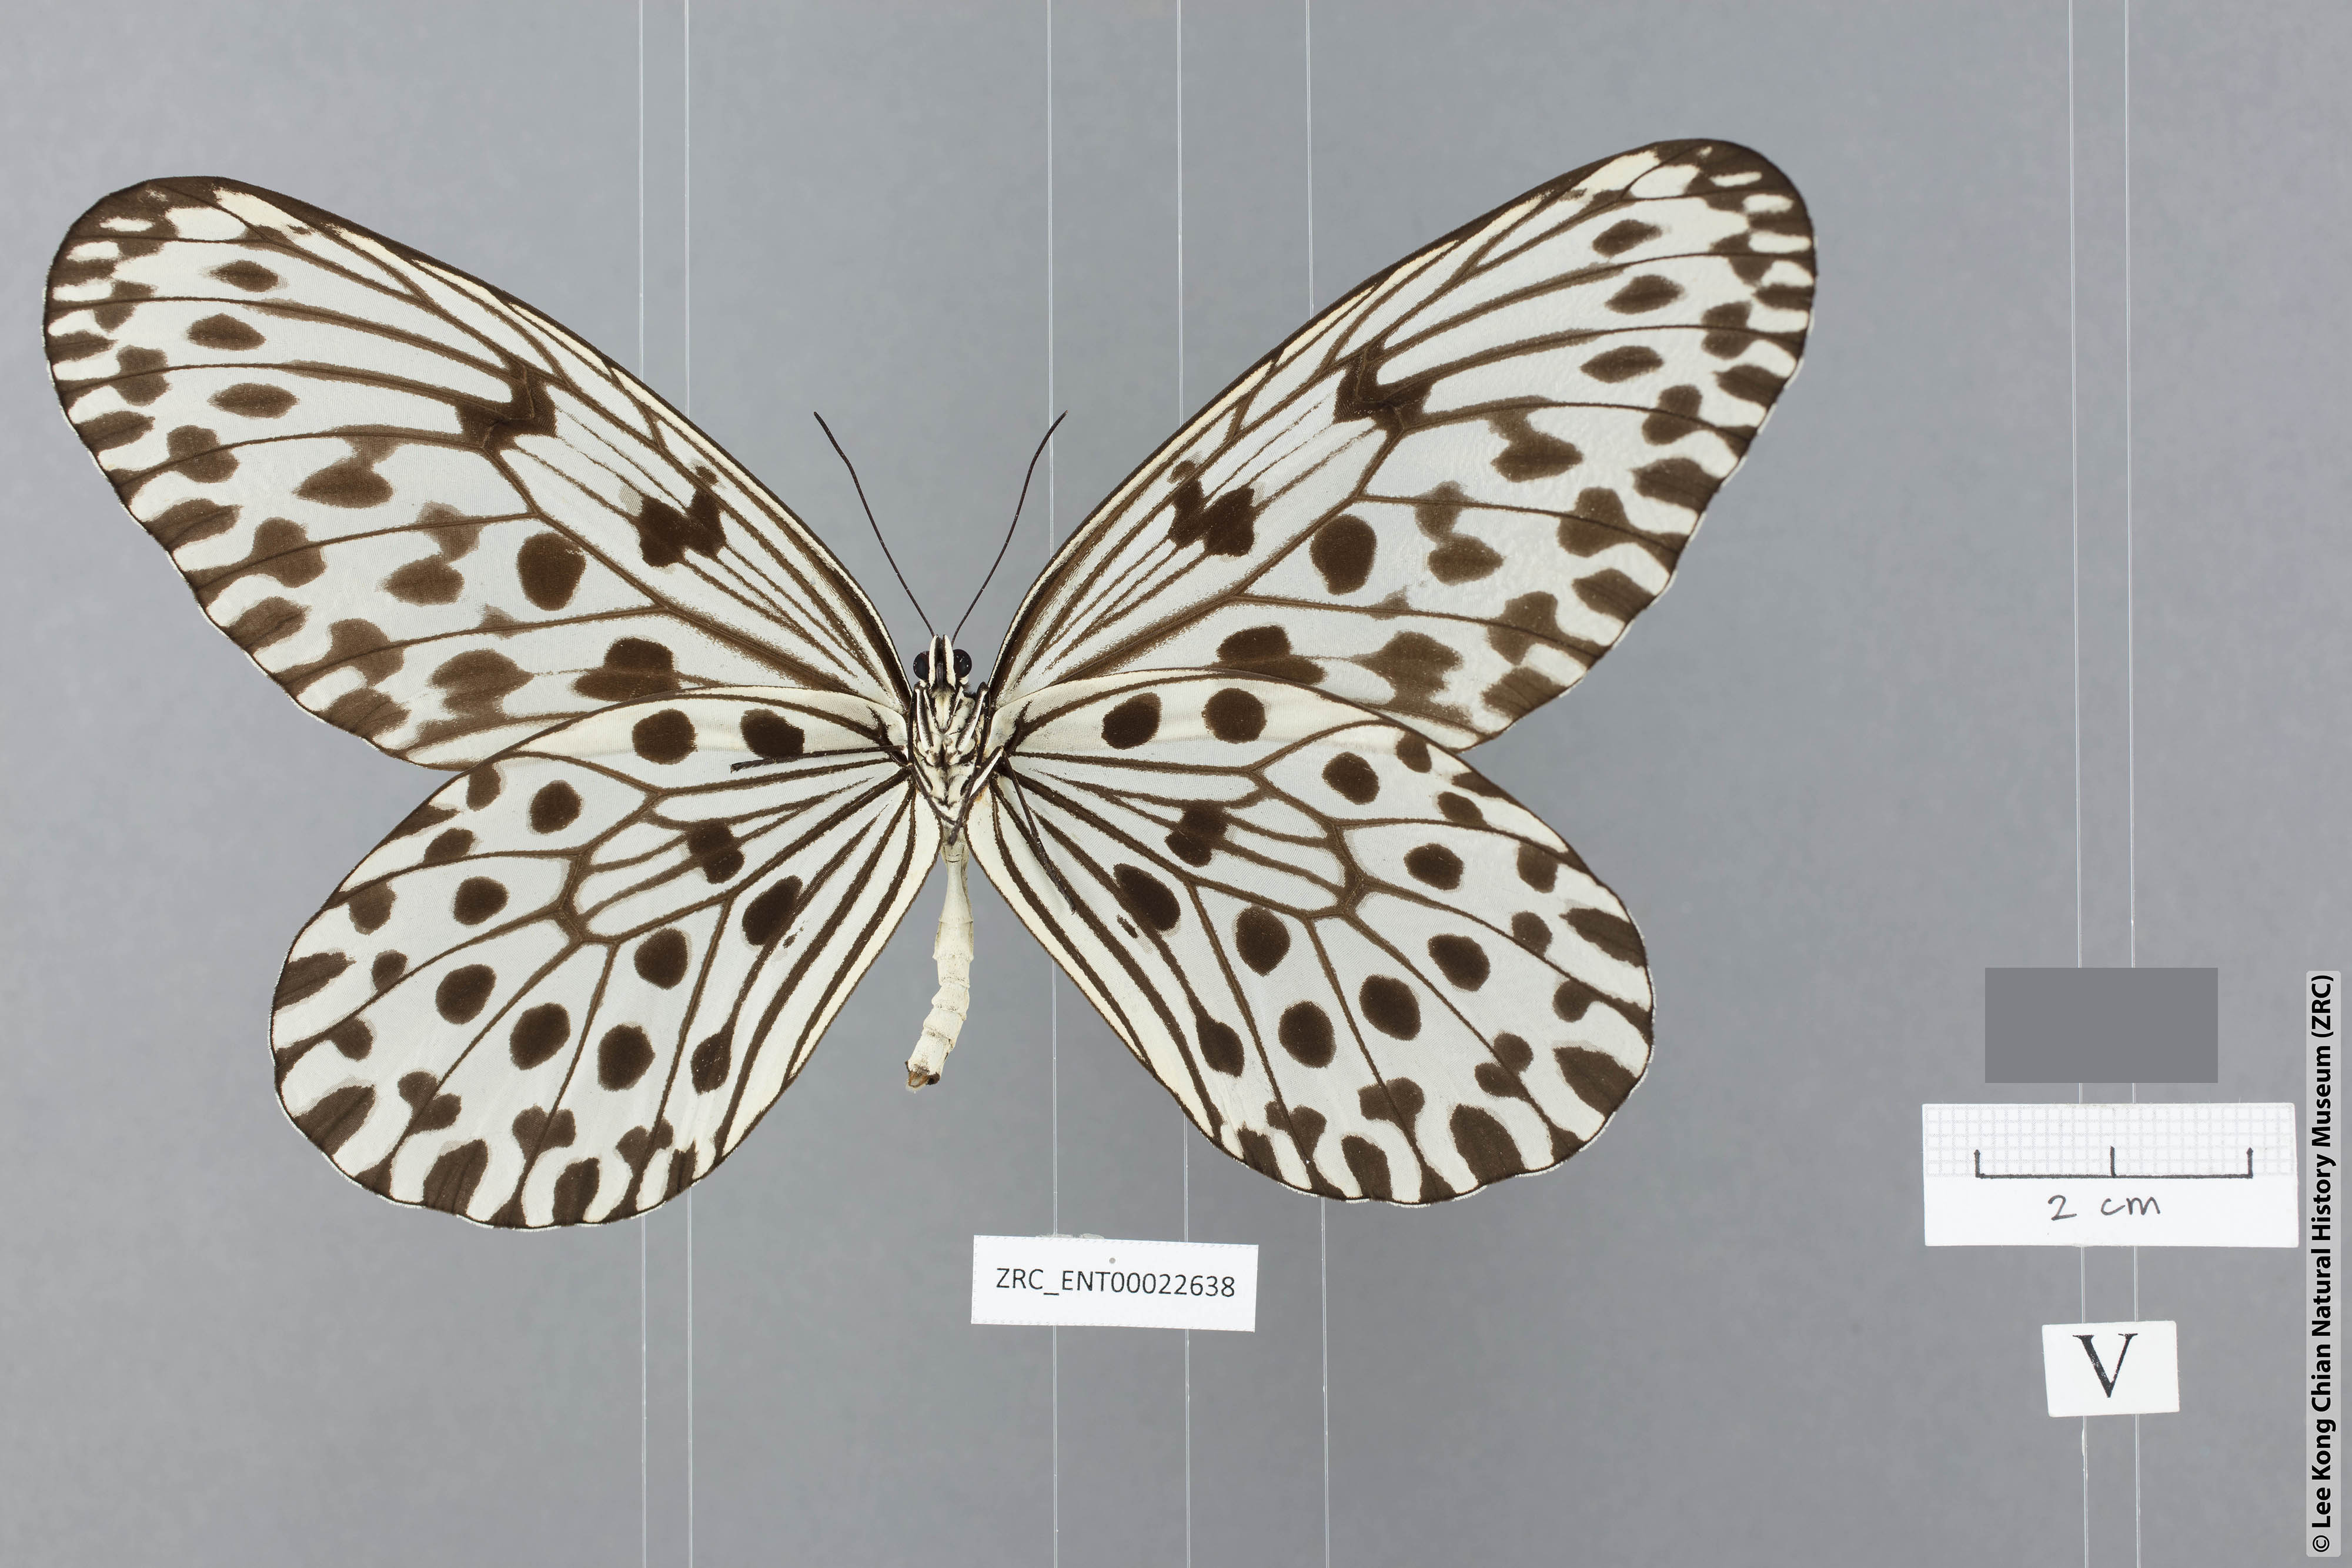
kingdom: Animalia
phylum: Arthropoda
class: Insecta
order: Lepidoptera
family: Nymphalidae
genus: Idea
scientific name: Idea hypermnestra
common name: Malayan tree nymph
